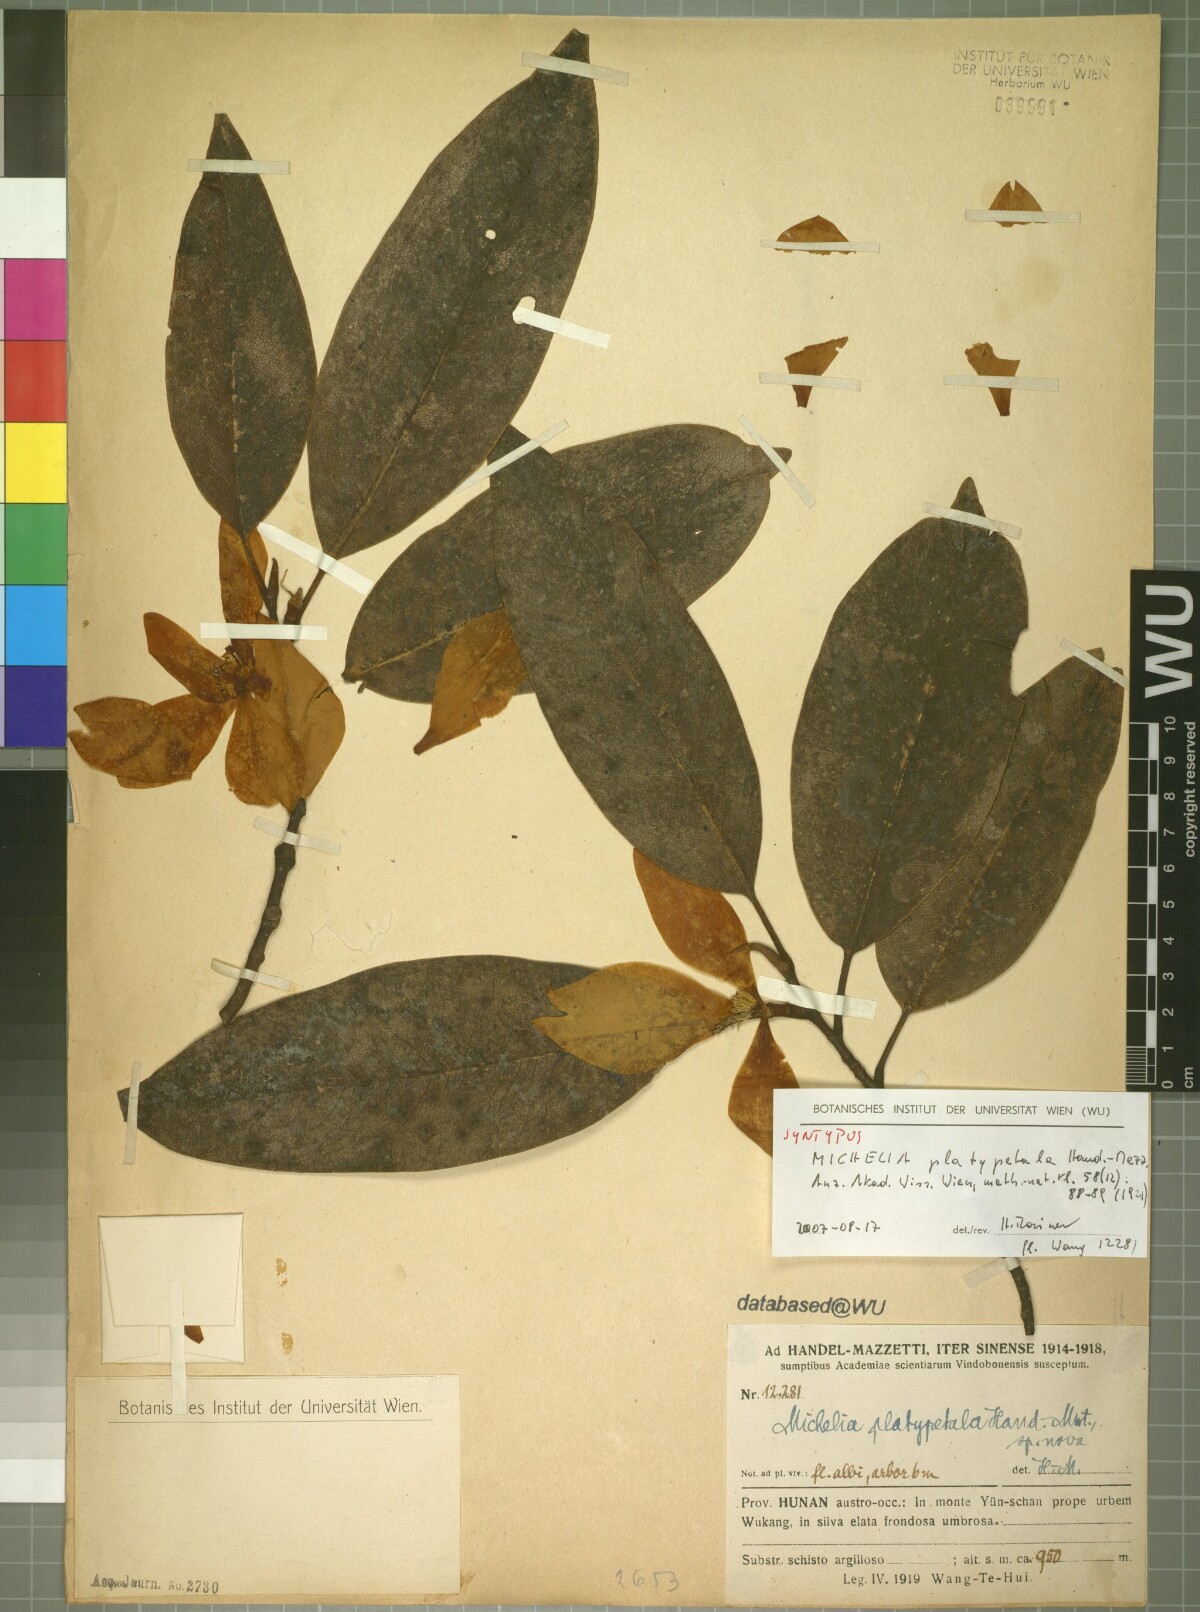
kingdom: Plantae
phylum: Tracheophyta
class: Magnoliopsida
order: Magnoliales
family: Magnoliaceae
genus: Magnolia
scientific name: Magnolia maudiae
